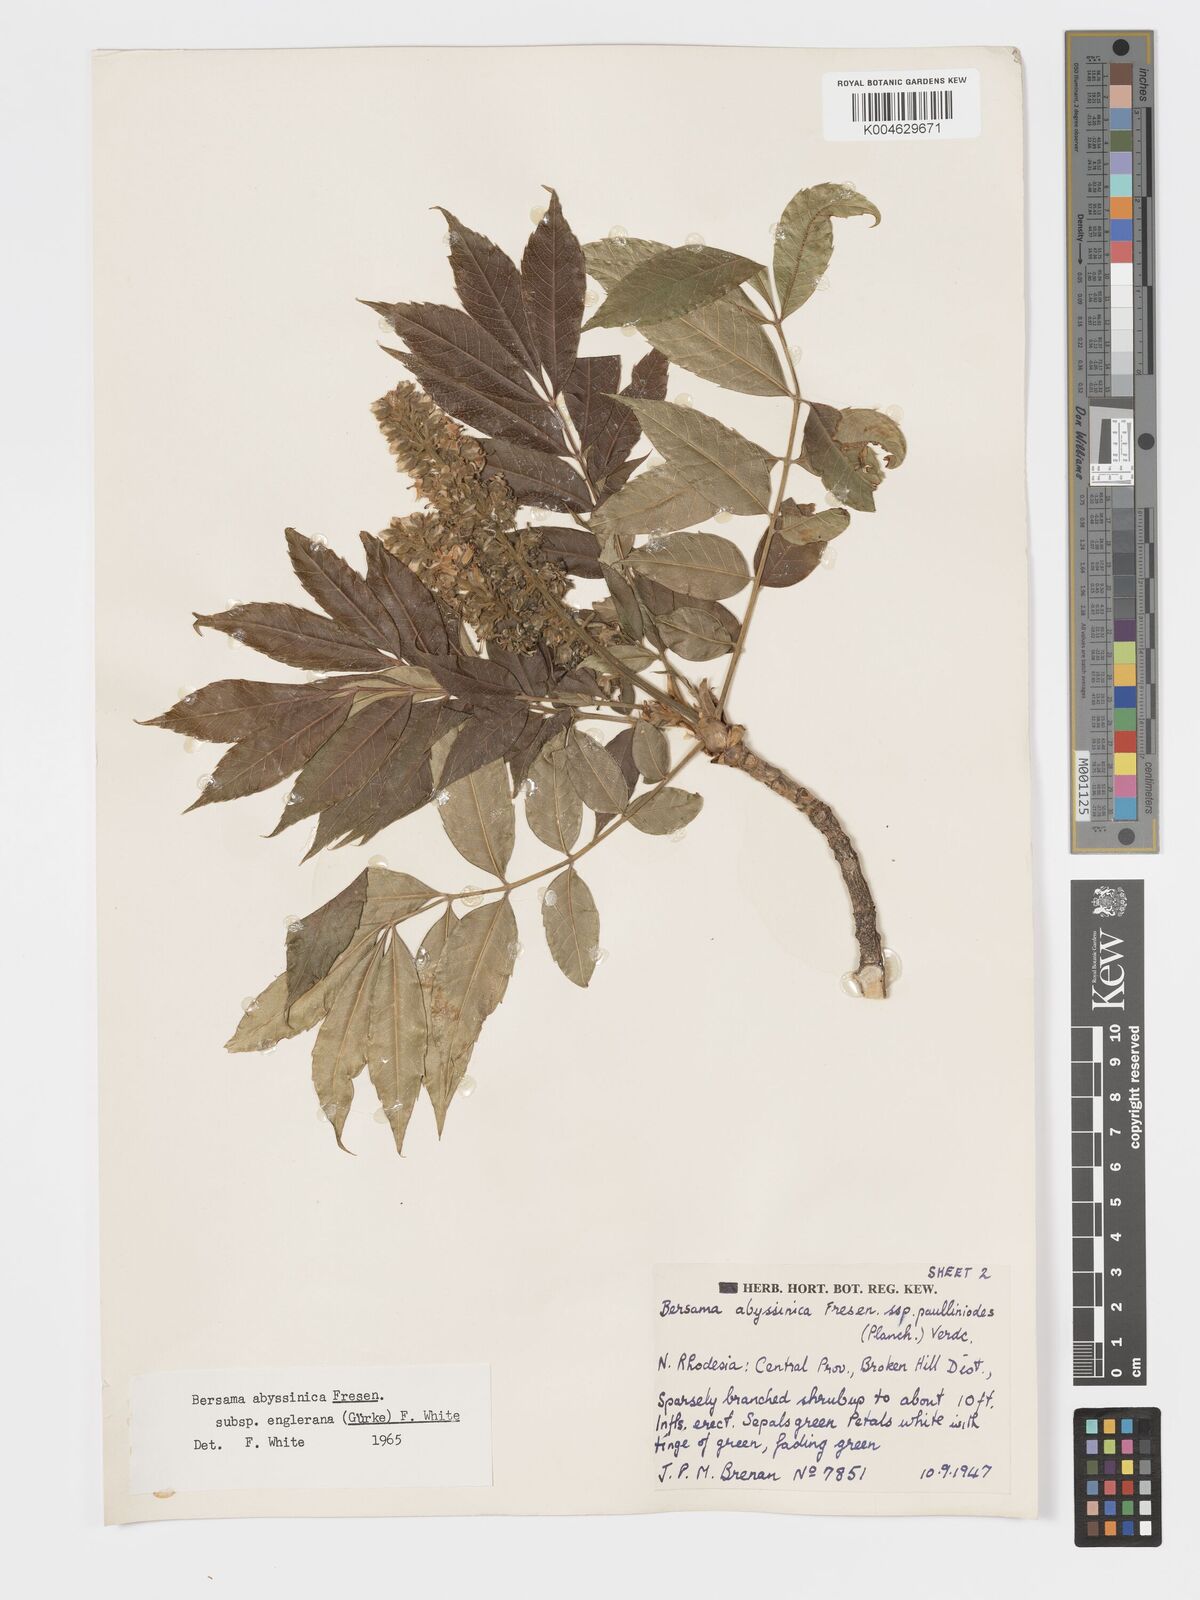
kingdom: Plantae
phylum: Tracheophyta
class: Magnoliopsida
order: Geraniales
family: Melianthaceae
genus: Bersama
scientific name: Bersama abyssinica
